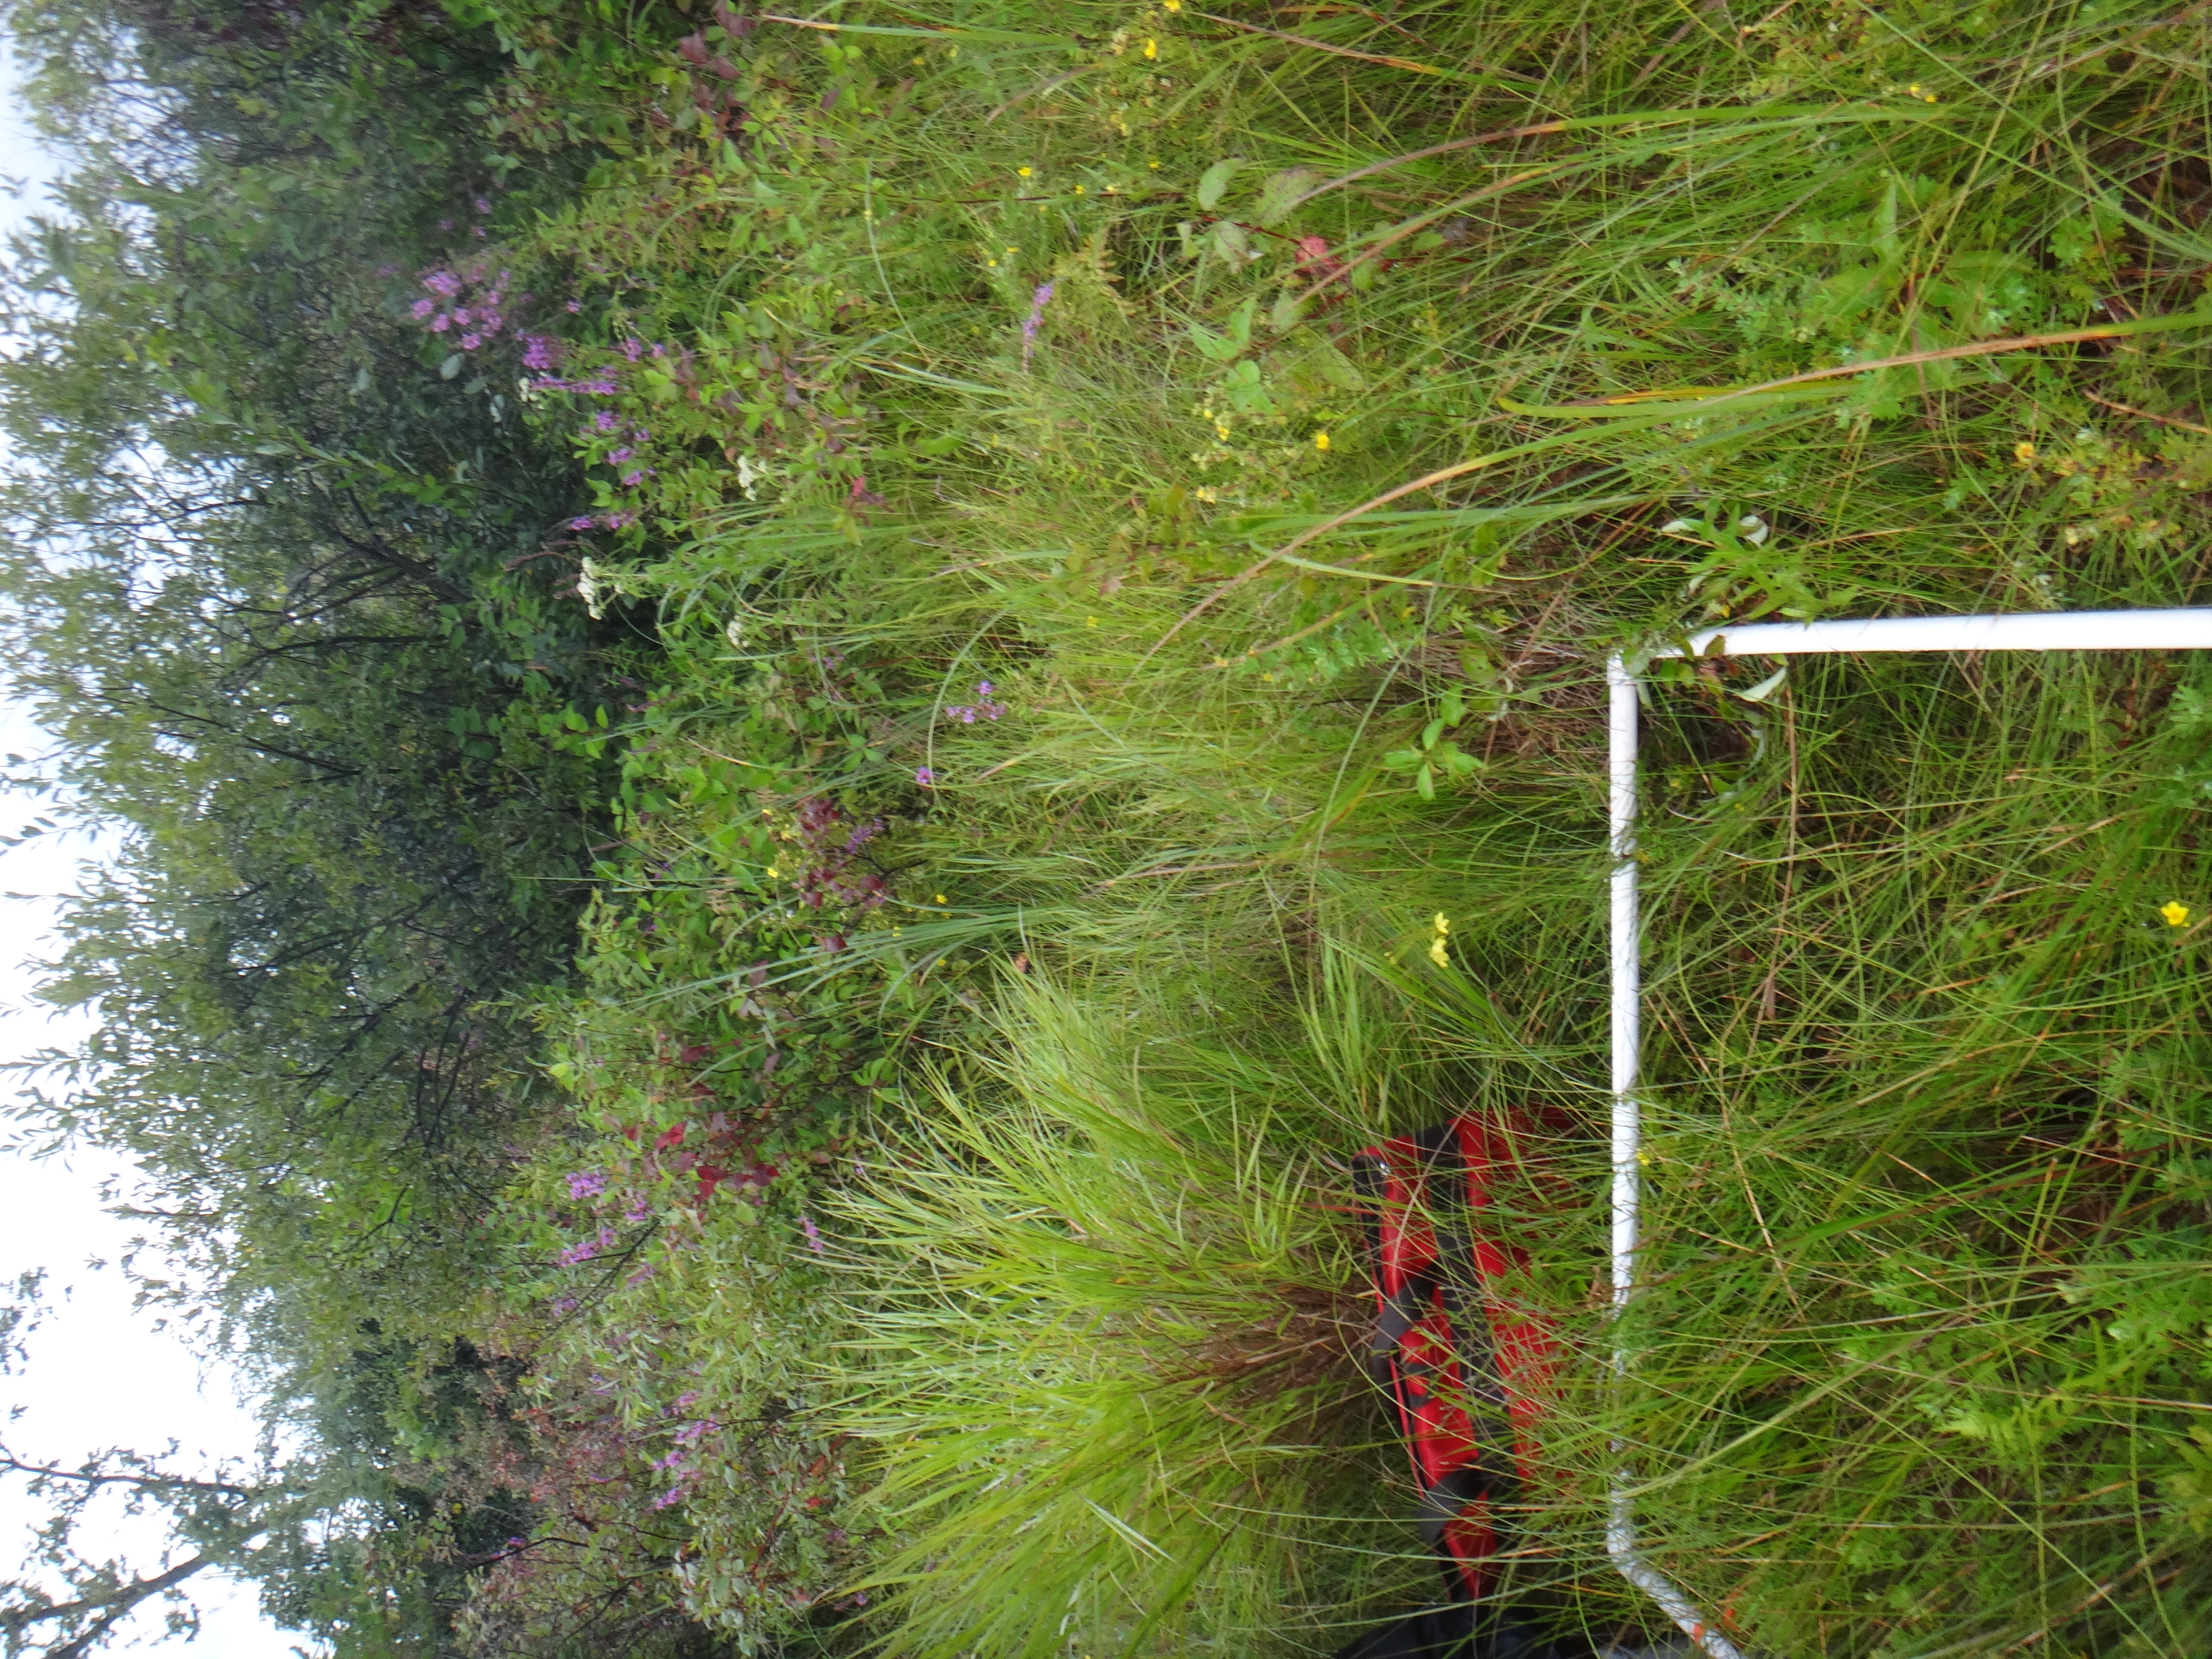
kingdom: Plantae
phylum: Tracheophyta
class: Liliopsida
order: Poales
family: Cyperaceae
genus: Carex
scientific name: Carex lasiocarpa
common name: Slender sedge
